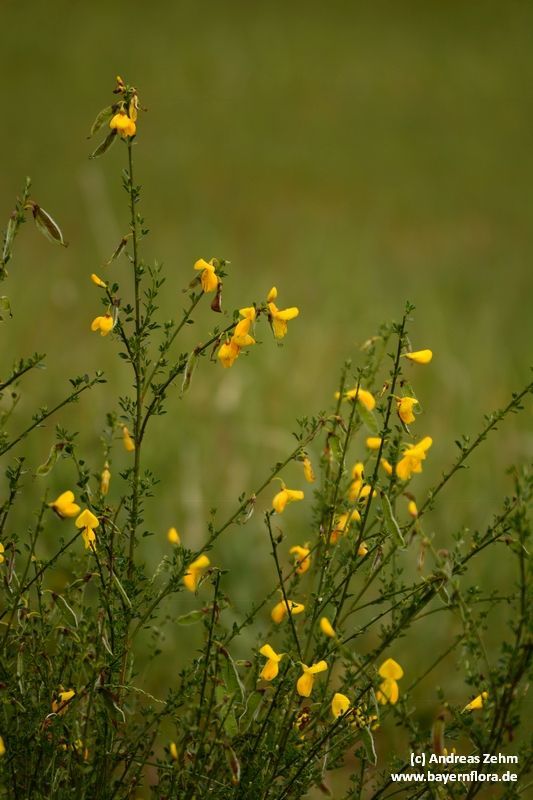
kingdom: Plantae
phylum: Tracheophyta
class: Magnoliopsida
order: Fabales
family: Fabaceae
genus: Cytisus
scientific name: Cytisus scoparius
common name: Scotch broom
